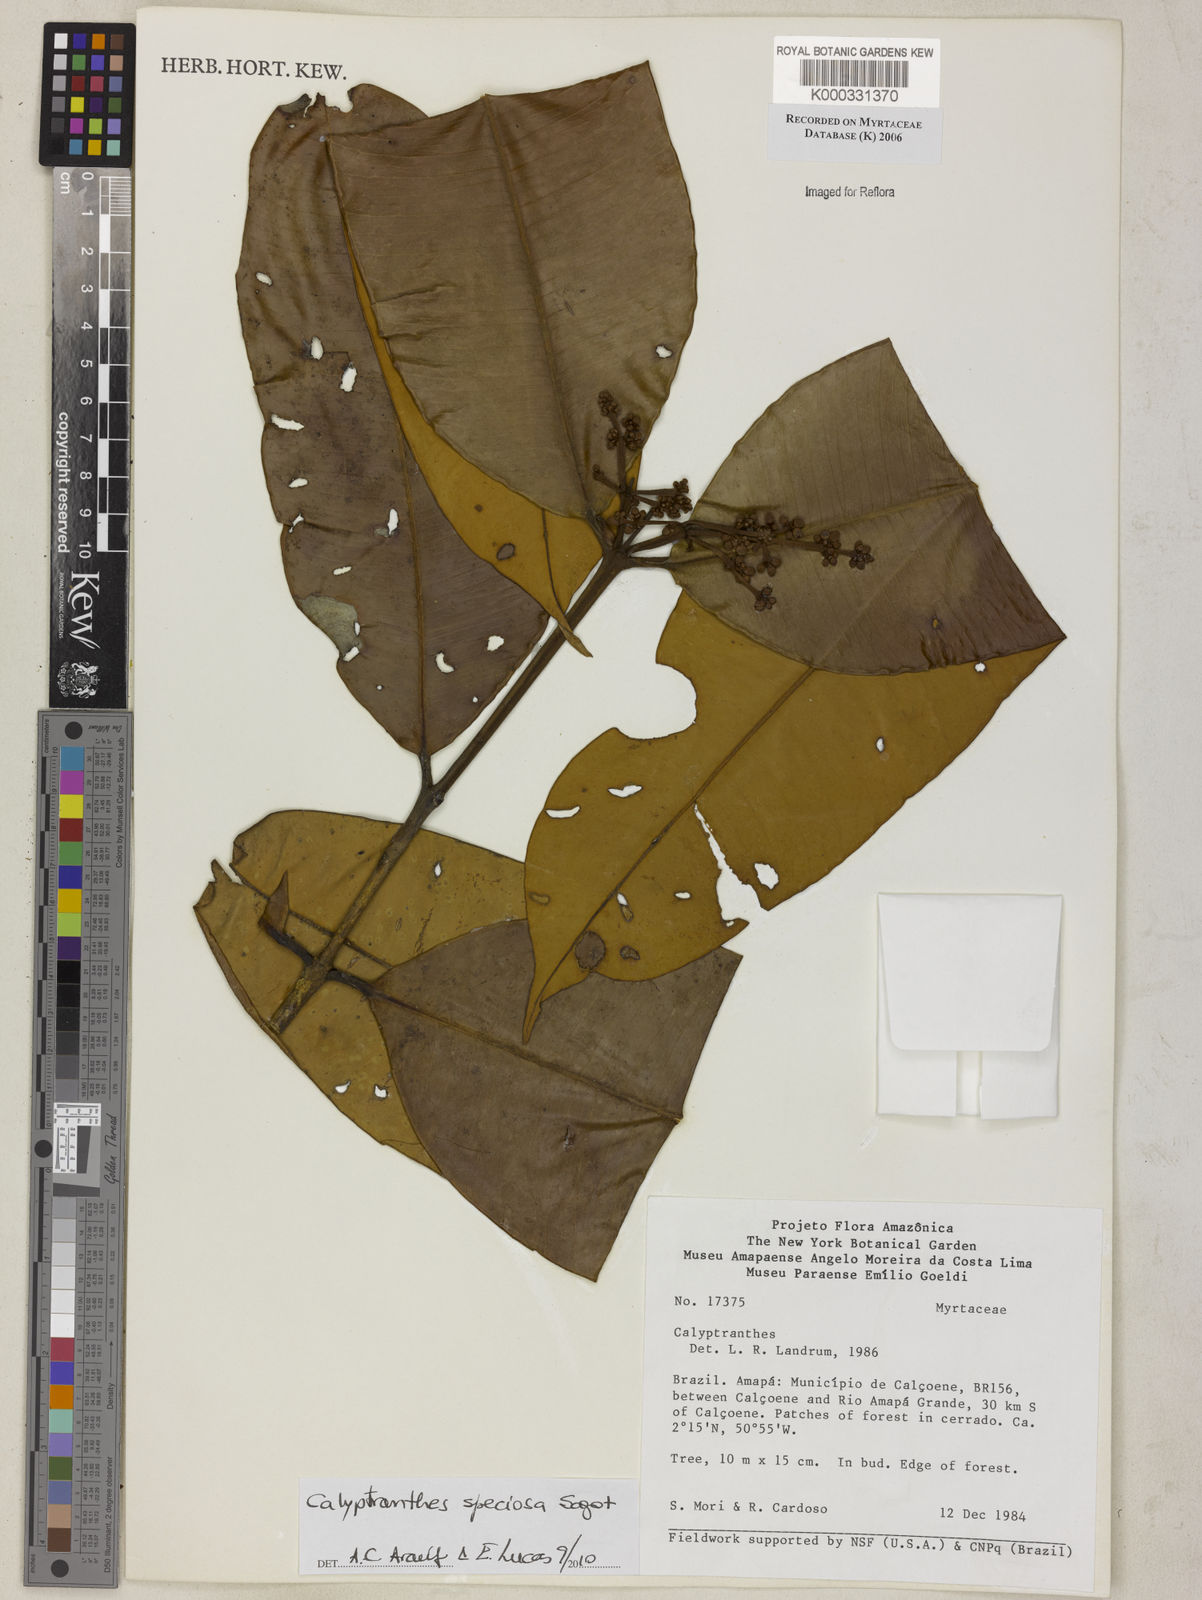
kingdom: Plantae
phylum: Tracheophyta
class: Magnoliopsida
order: Myrtales
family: Myrtaceae
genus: Calyptranthes
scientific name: Calyptranthes
